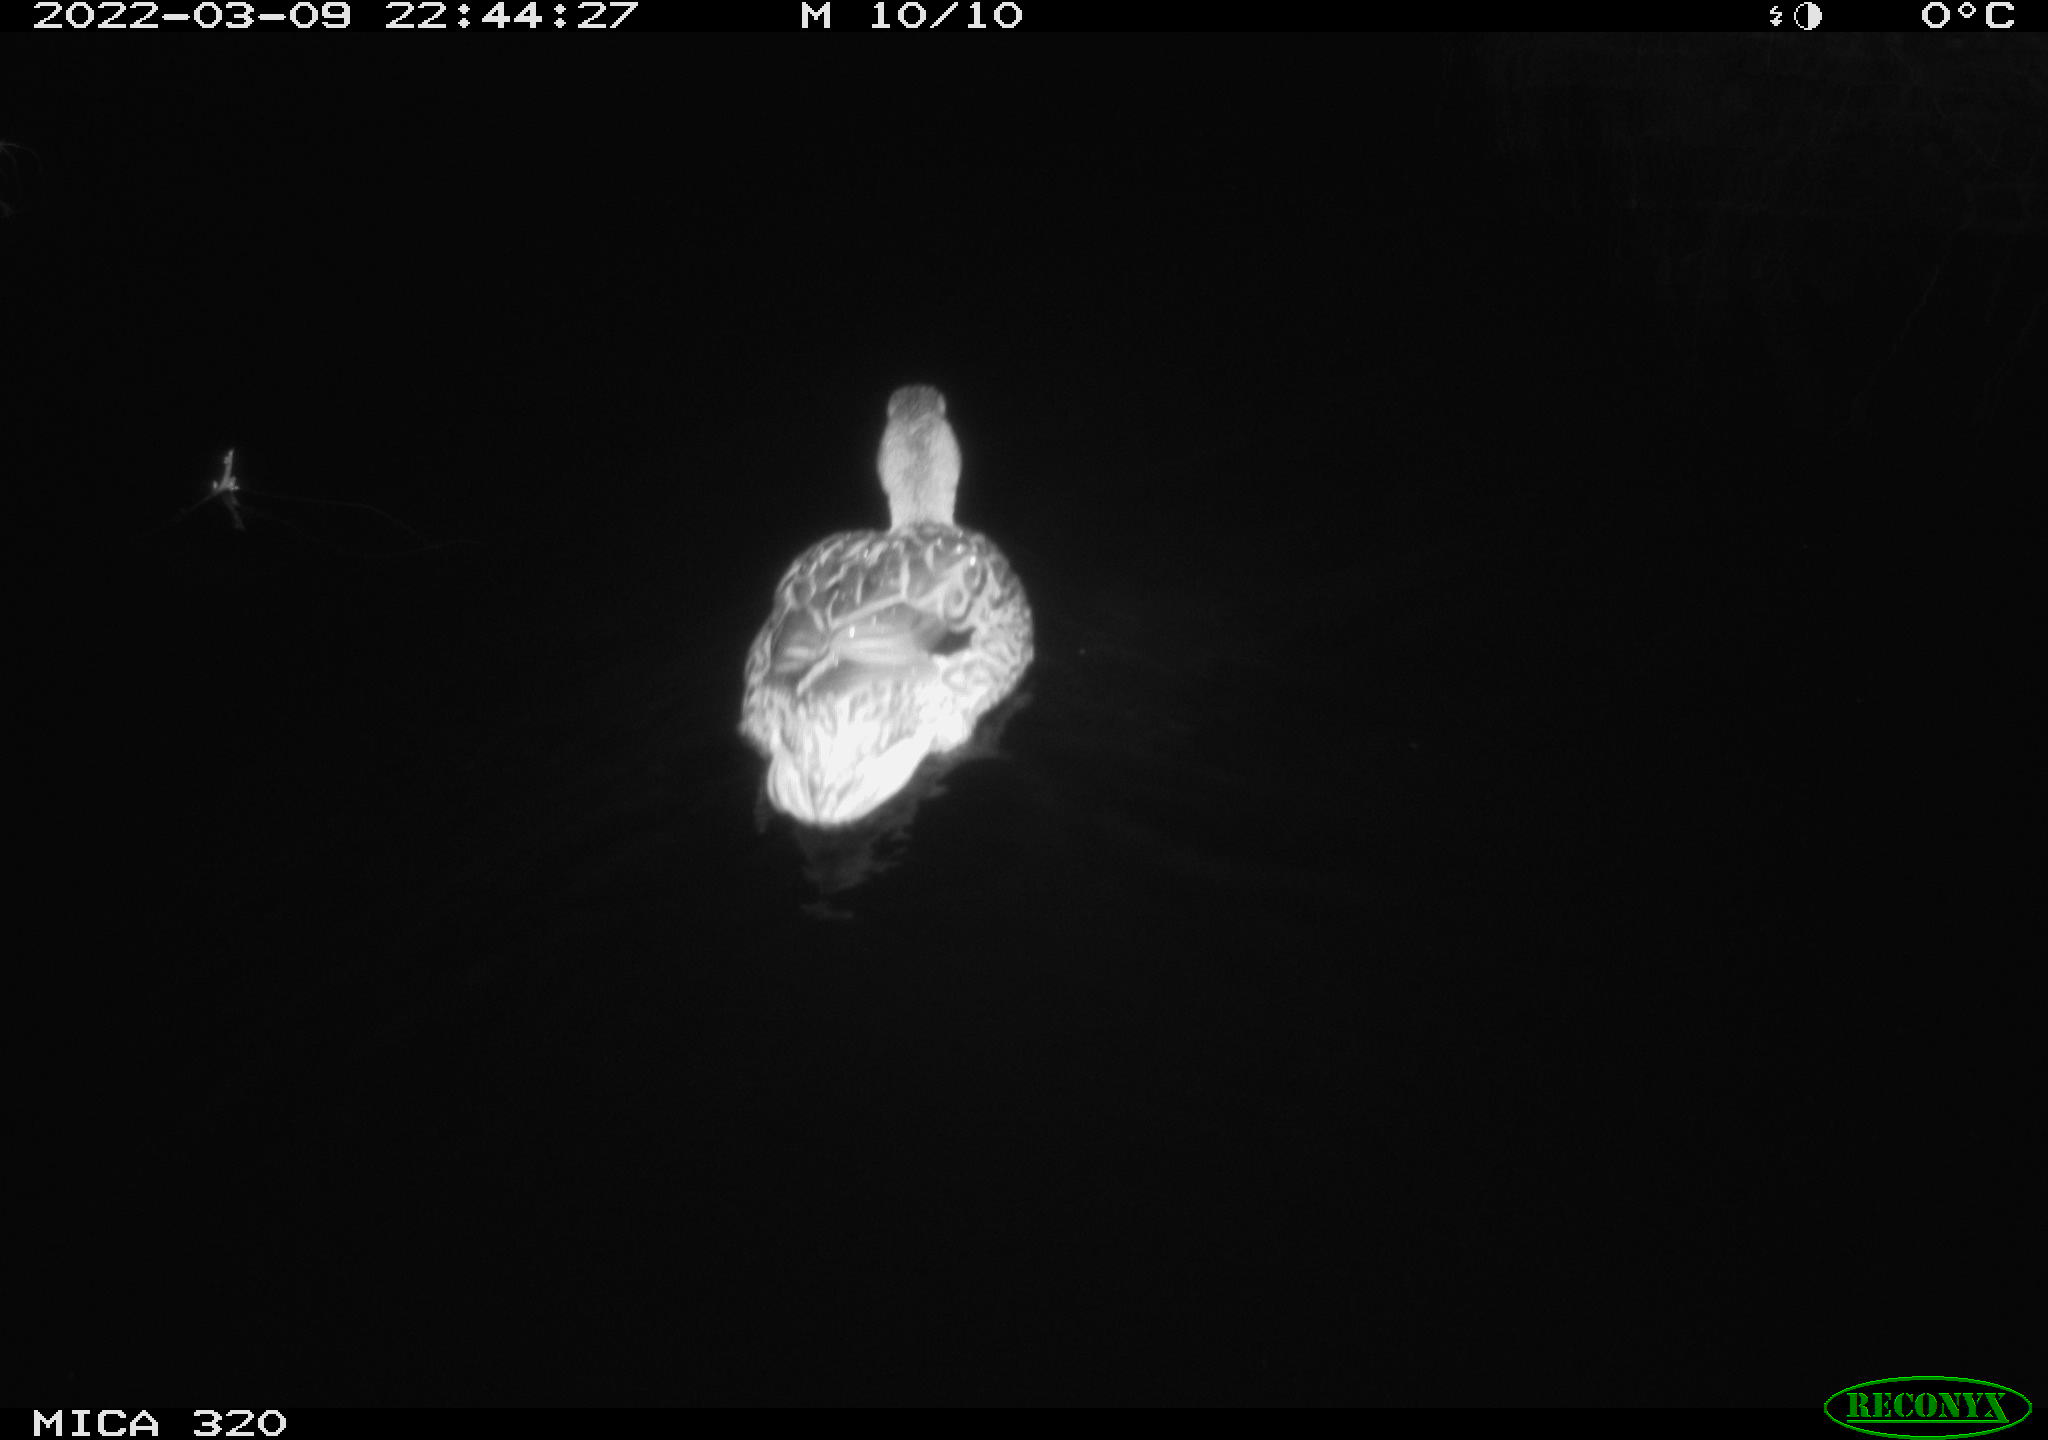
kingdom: Animalia
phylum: Chordata
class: Aves
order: Anseriformes
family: Anatidae
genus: Anas
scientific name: Anas platyrhynchos
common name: Mallard
